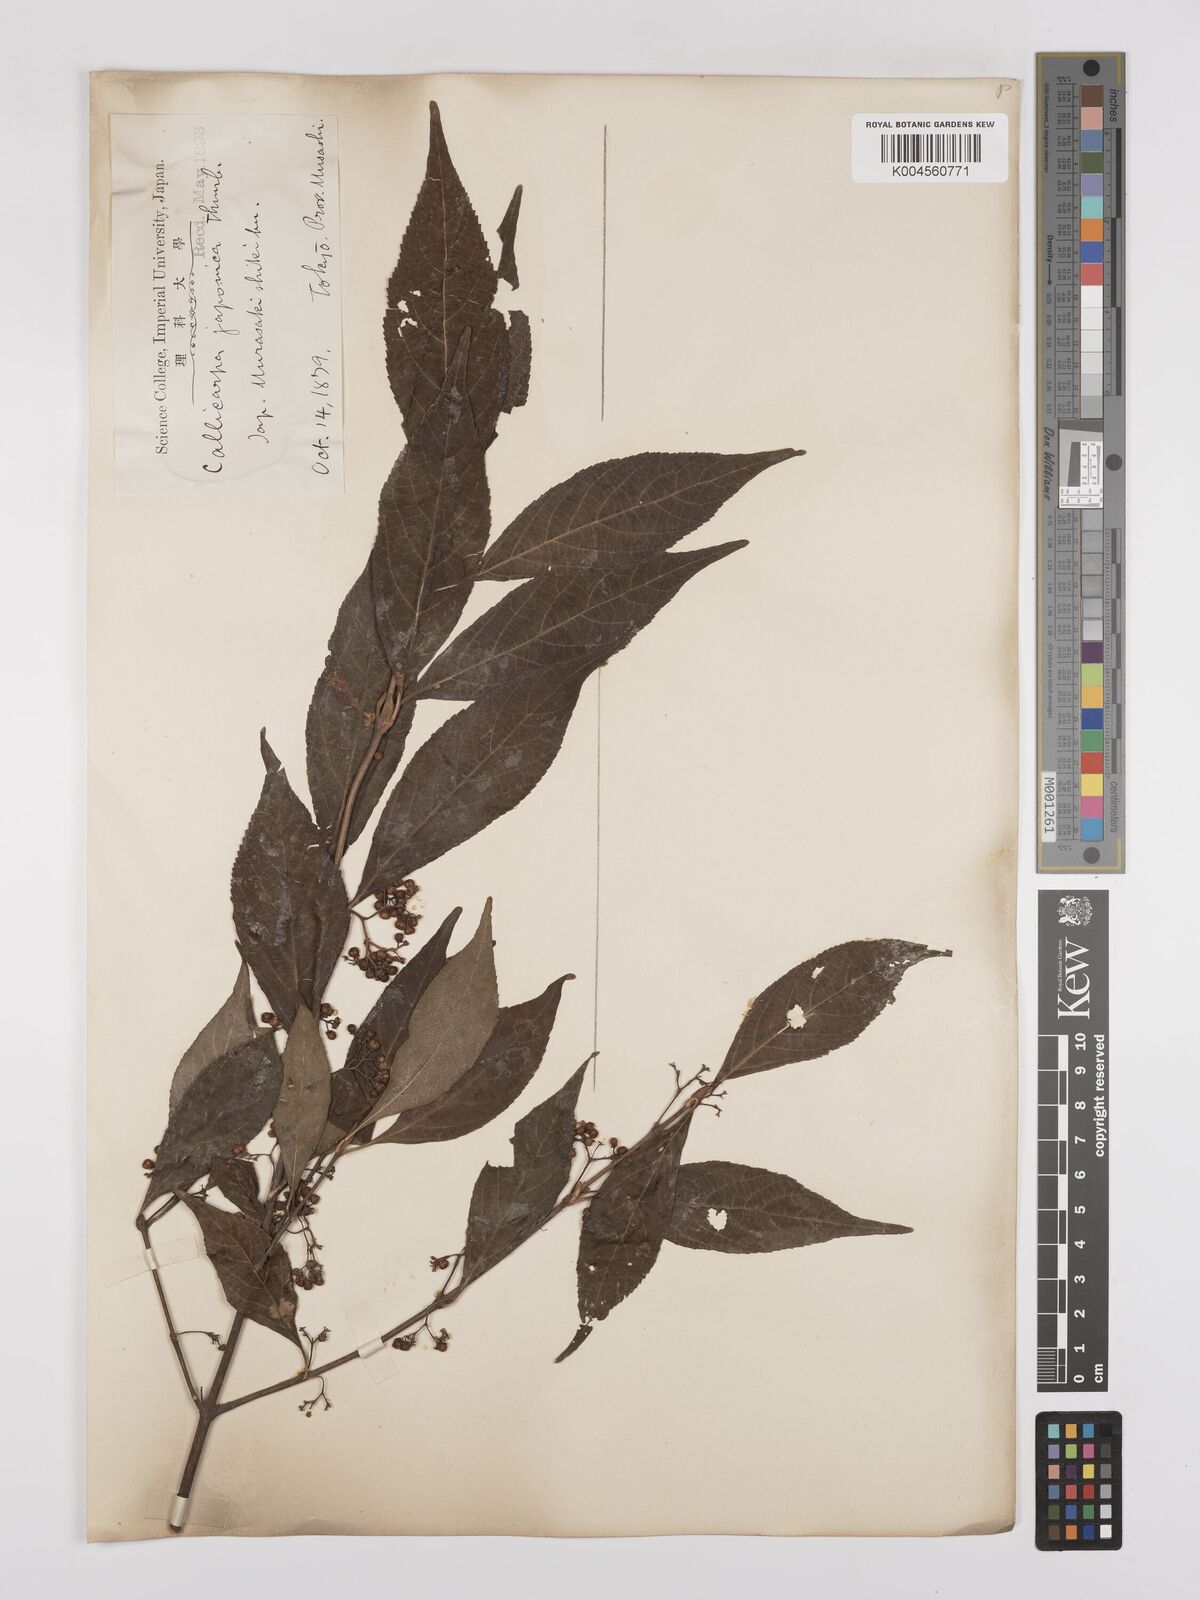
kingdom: Plantae
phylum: Tracheophyta
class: Magnoliopsida
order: Lamiales
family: Lamiaceae
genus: Callicarpa
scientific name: Callicarpa japonica
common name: Japanese beauty-berry
